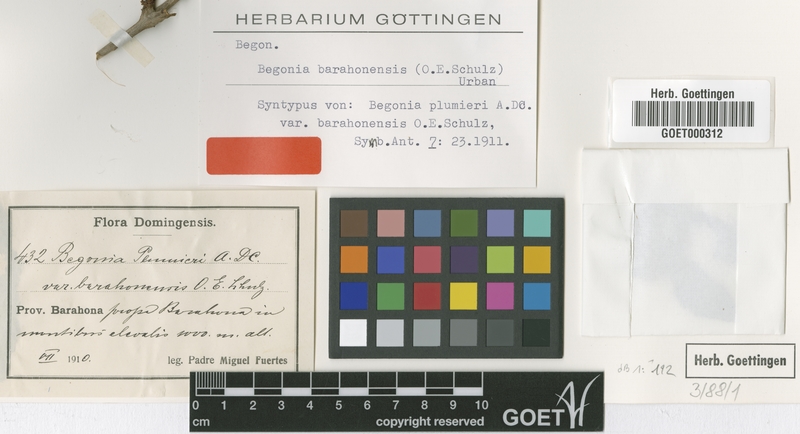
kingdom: Plantae
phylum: Tracheophyta
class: Magnoliopsida
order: Cucurbitales
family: Begoniaceae
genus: Begonia
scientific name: Begonia barahonensis
